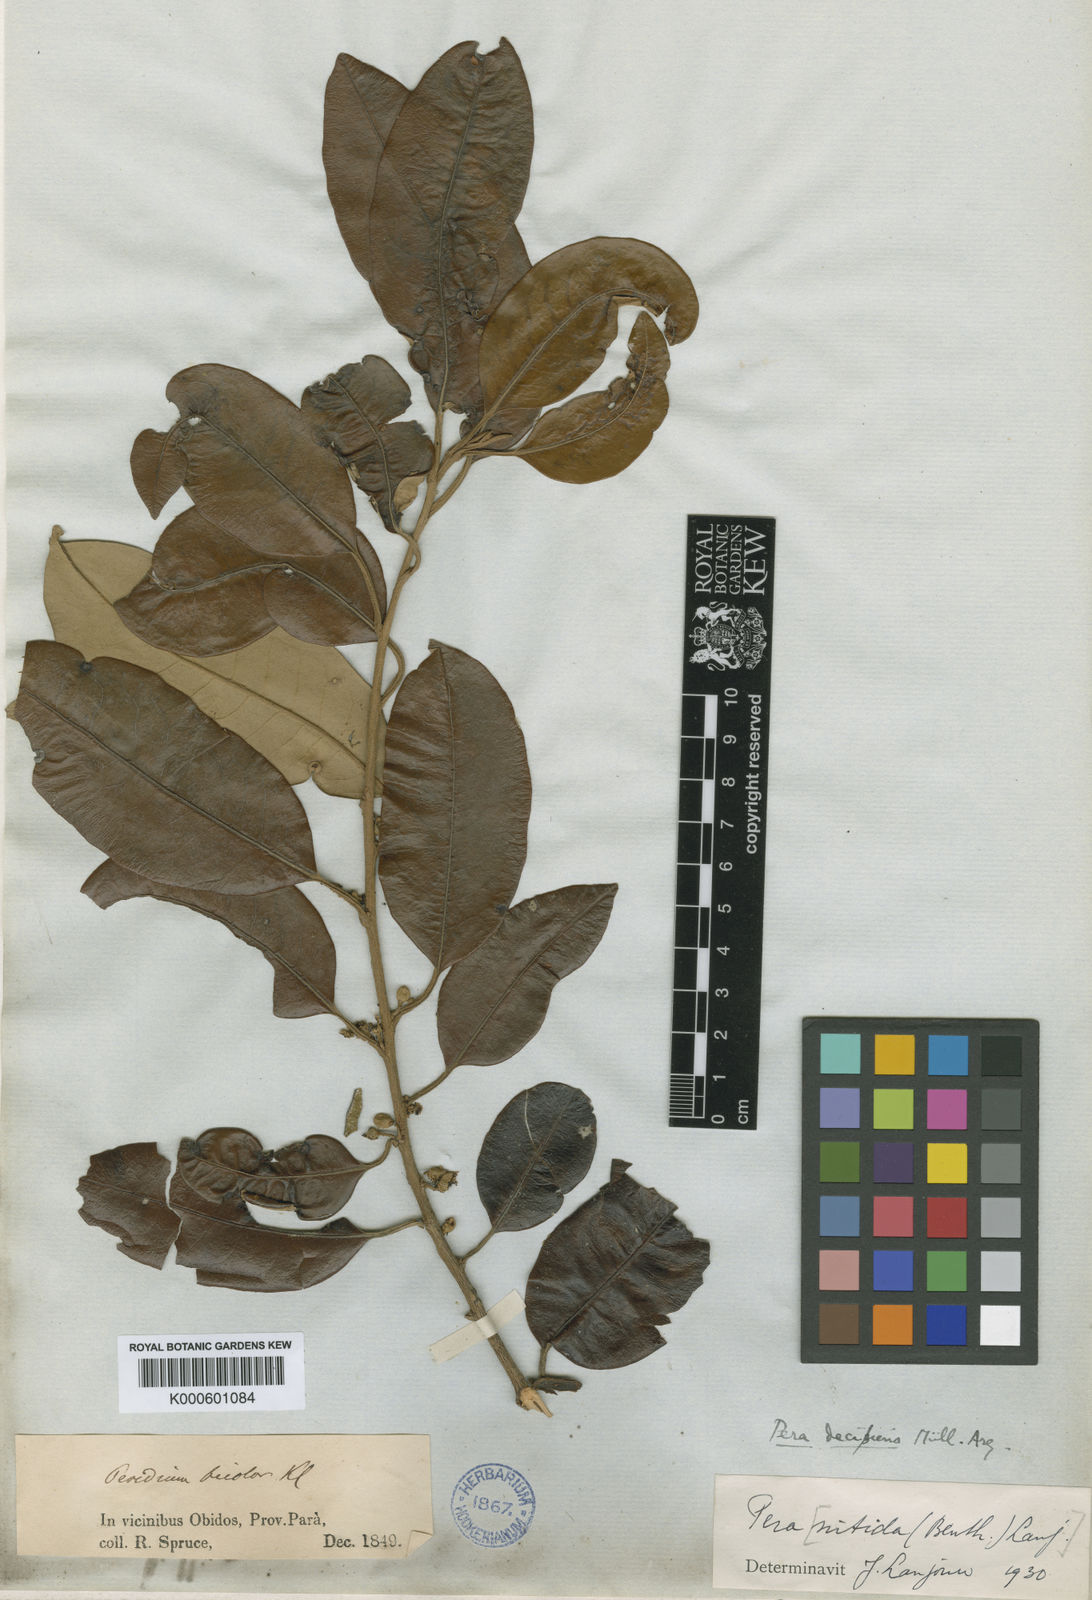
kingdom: Plantae
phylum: Tracheophyta
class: Magnoliopsida
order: Malpighiales
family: Peraceae
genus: Pera
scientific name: Pera
